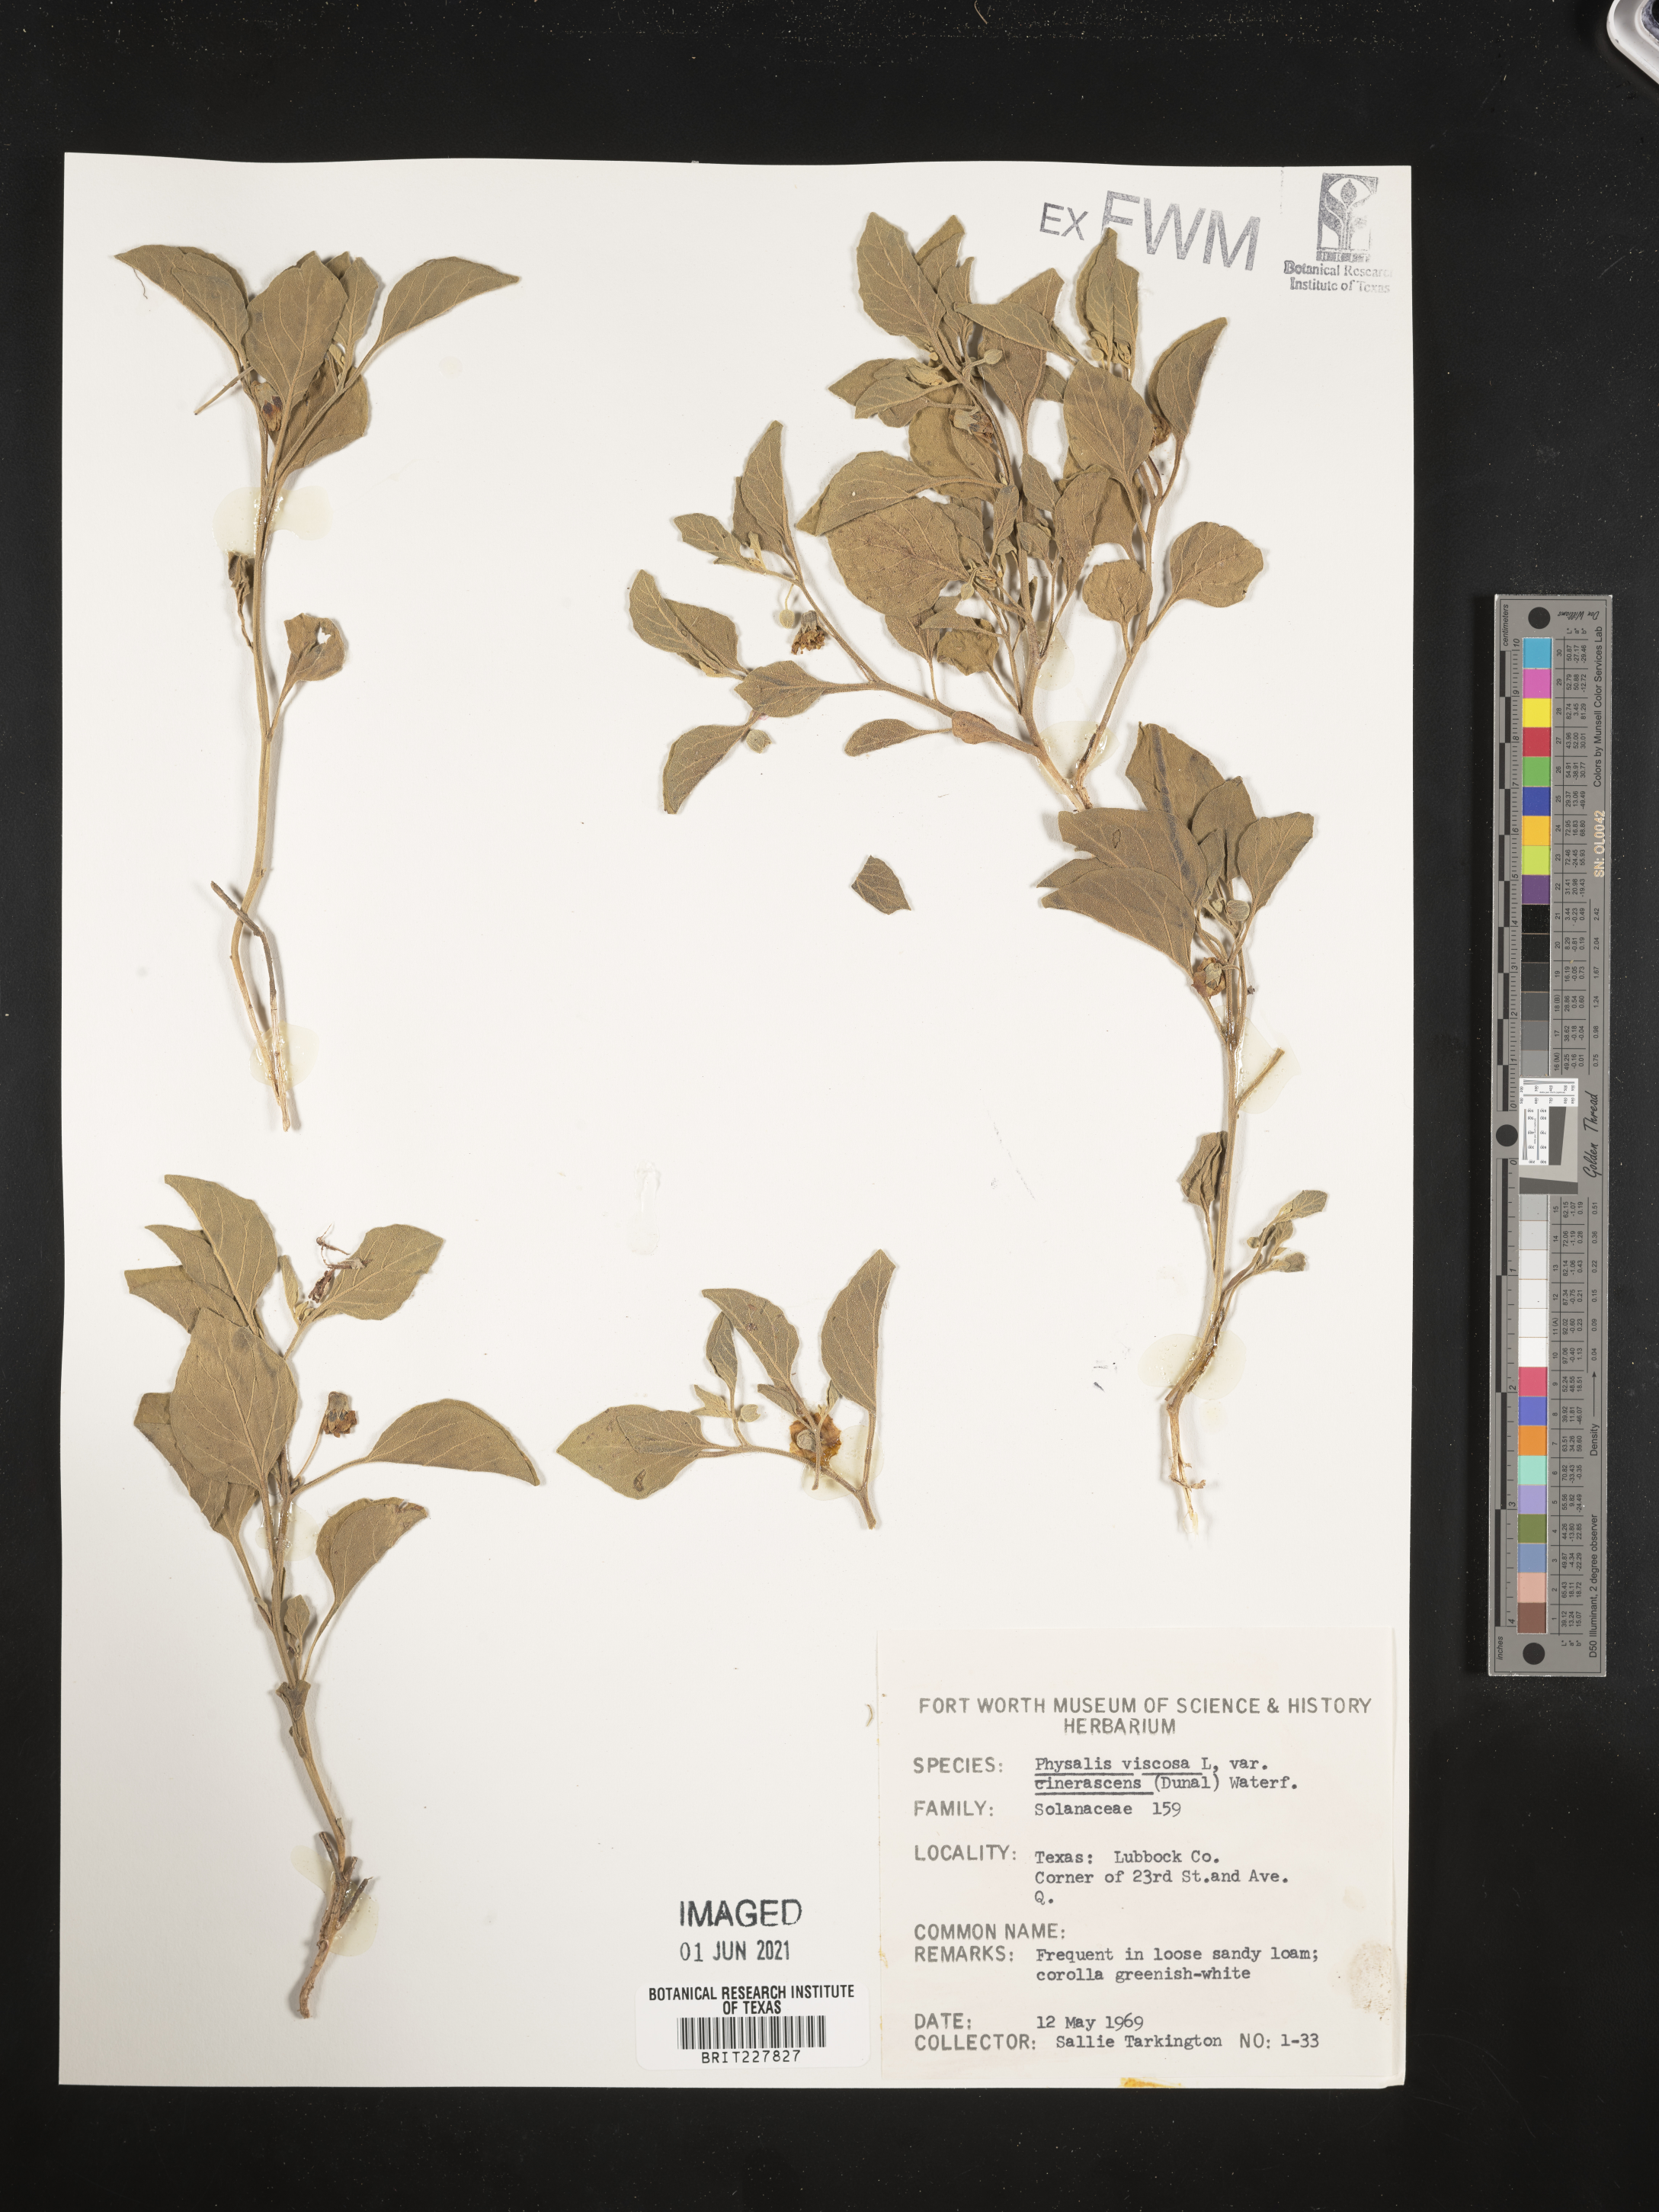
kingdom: Plantae
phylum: Tracheophyta
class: Magnoliopsida
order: Solanales
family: Solanaceae
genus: Physalis
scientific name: Physalis cinerascens
